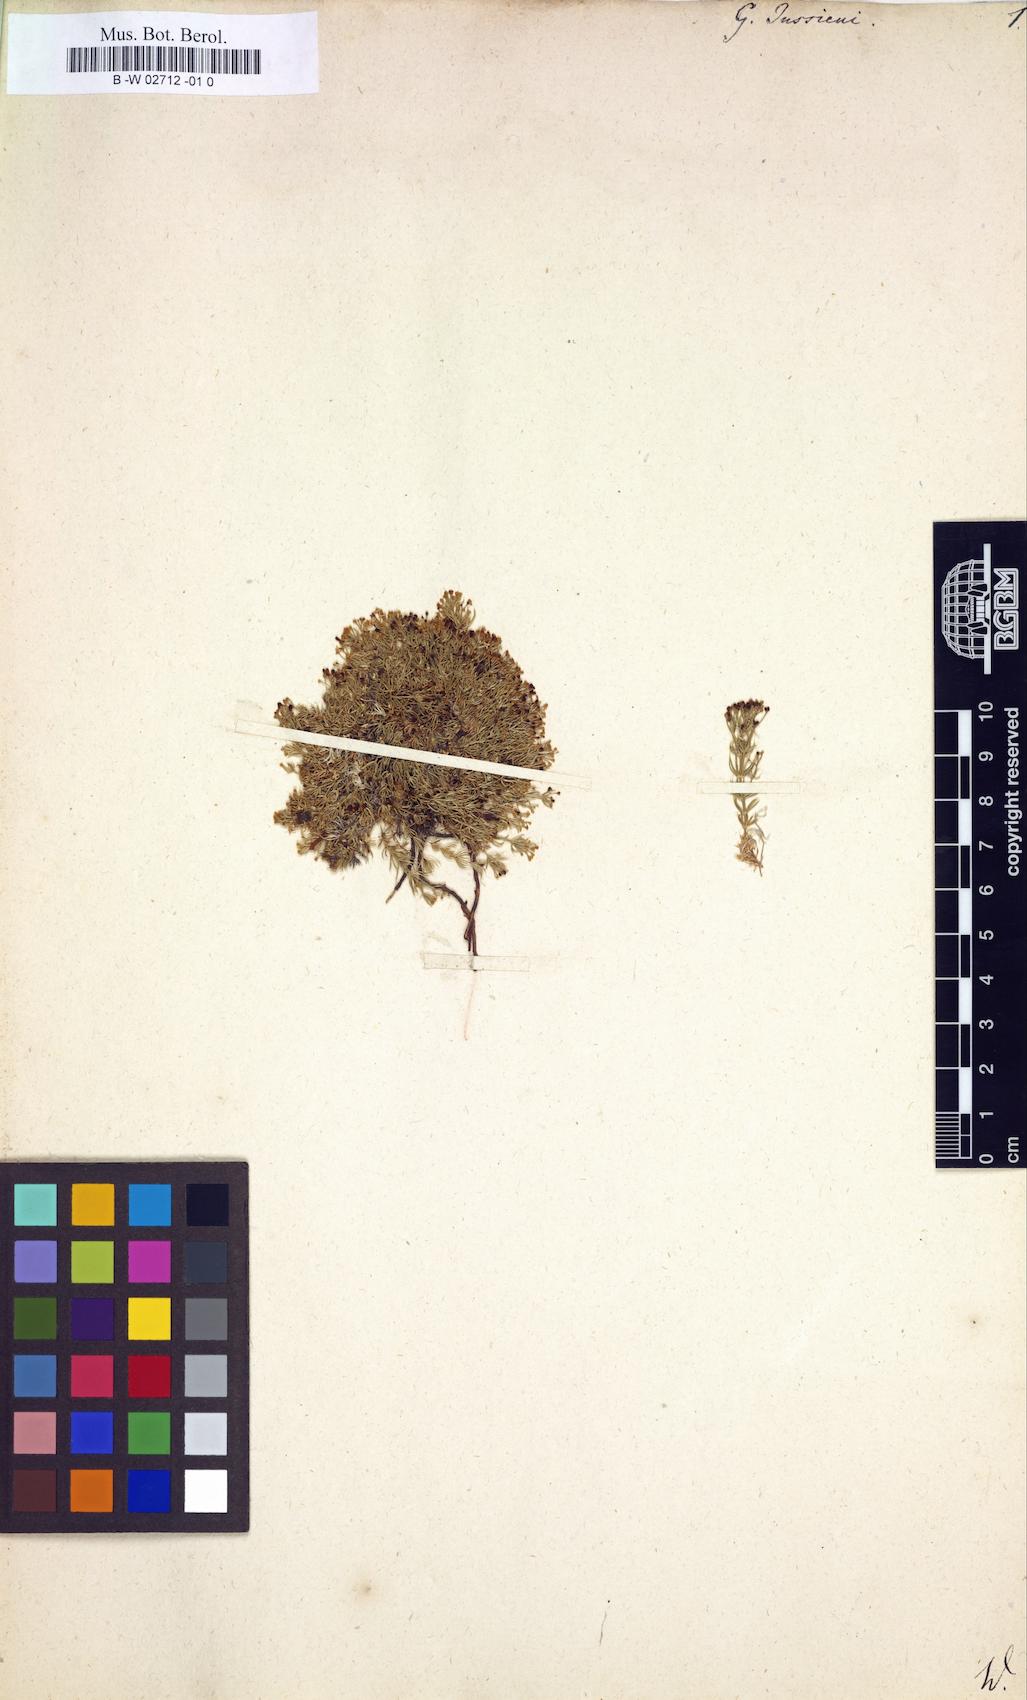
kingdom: Plantae
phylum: Tracheophyta
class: Magnoliopsida
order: Gentianales
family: Rubiaceae
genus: Galium
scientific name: Galium
